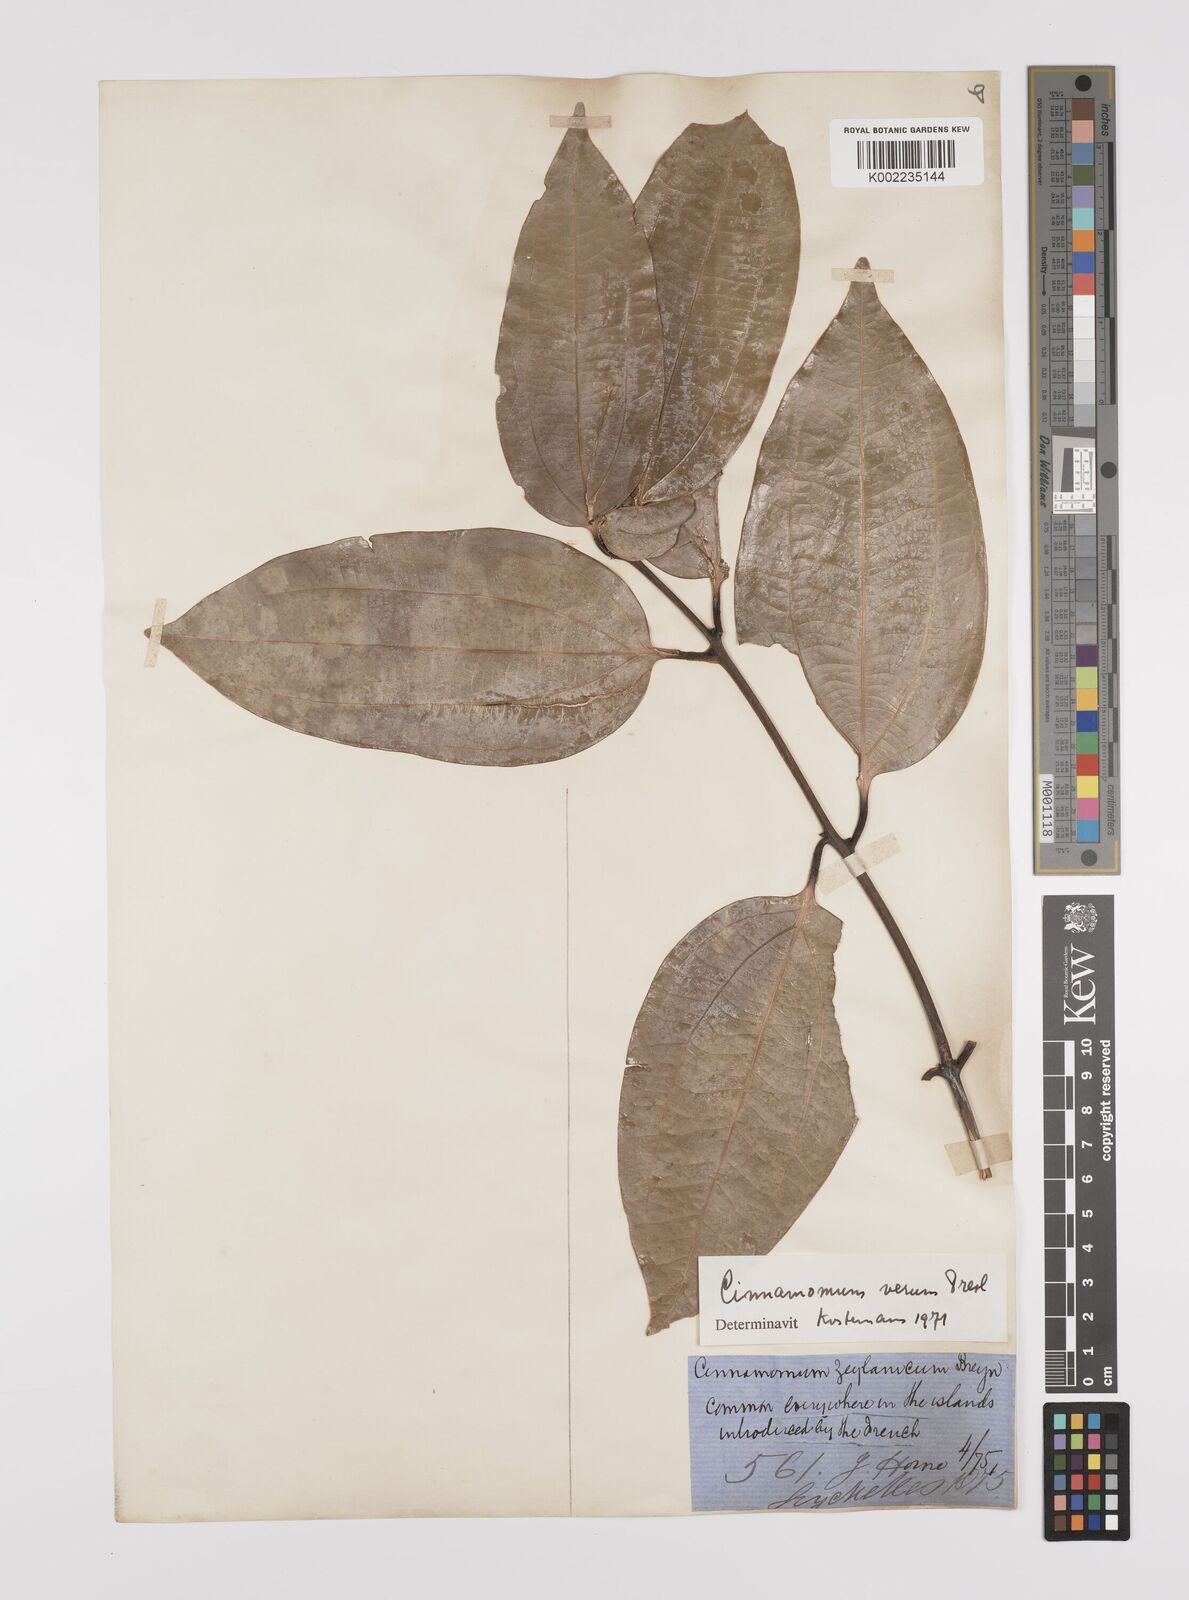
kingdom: Plantae
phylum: Tracheophyta
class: Magnoliopsida
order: Laurales
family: Lauraceae
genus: Cinnamomum
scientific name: Cinnamomum verum
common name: Cinnamon
